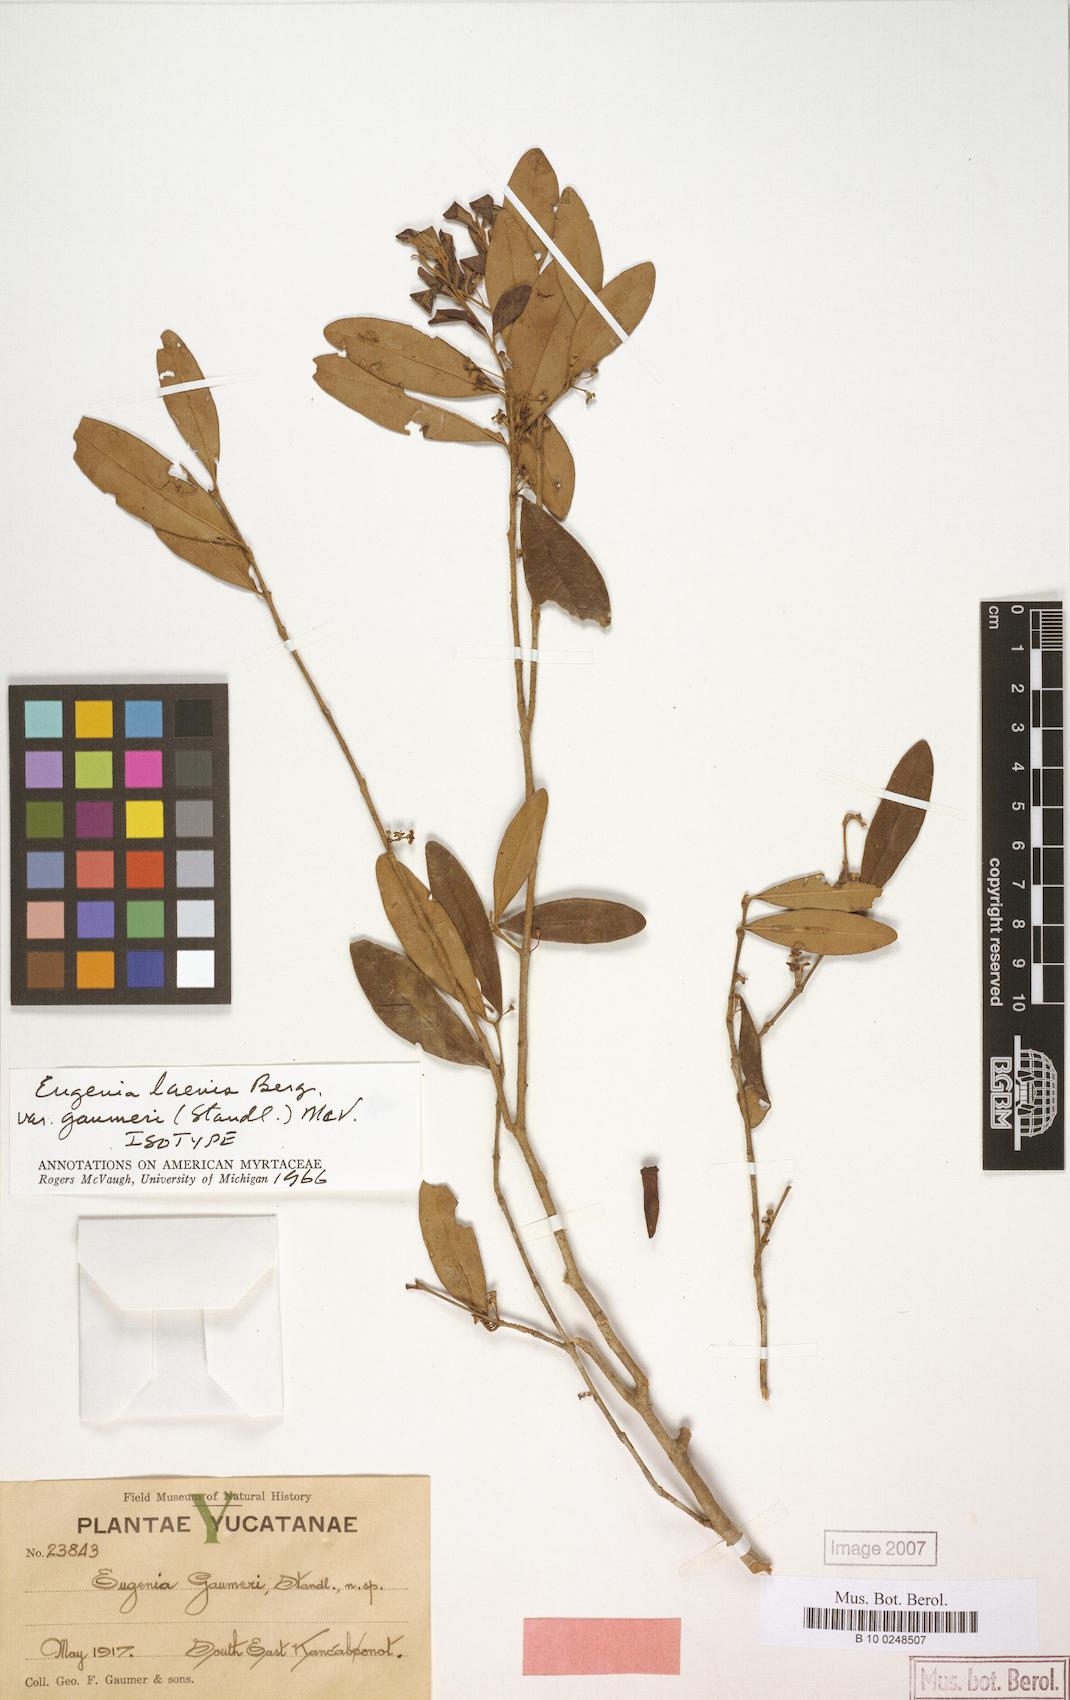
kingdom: Plantae
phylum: Tracheophyta
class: Magnoliopsida
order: Myrtales
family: Myrtaceae
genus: Eugenia
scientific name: Eugenia gaumeri
